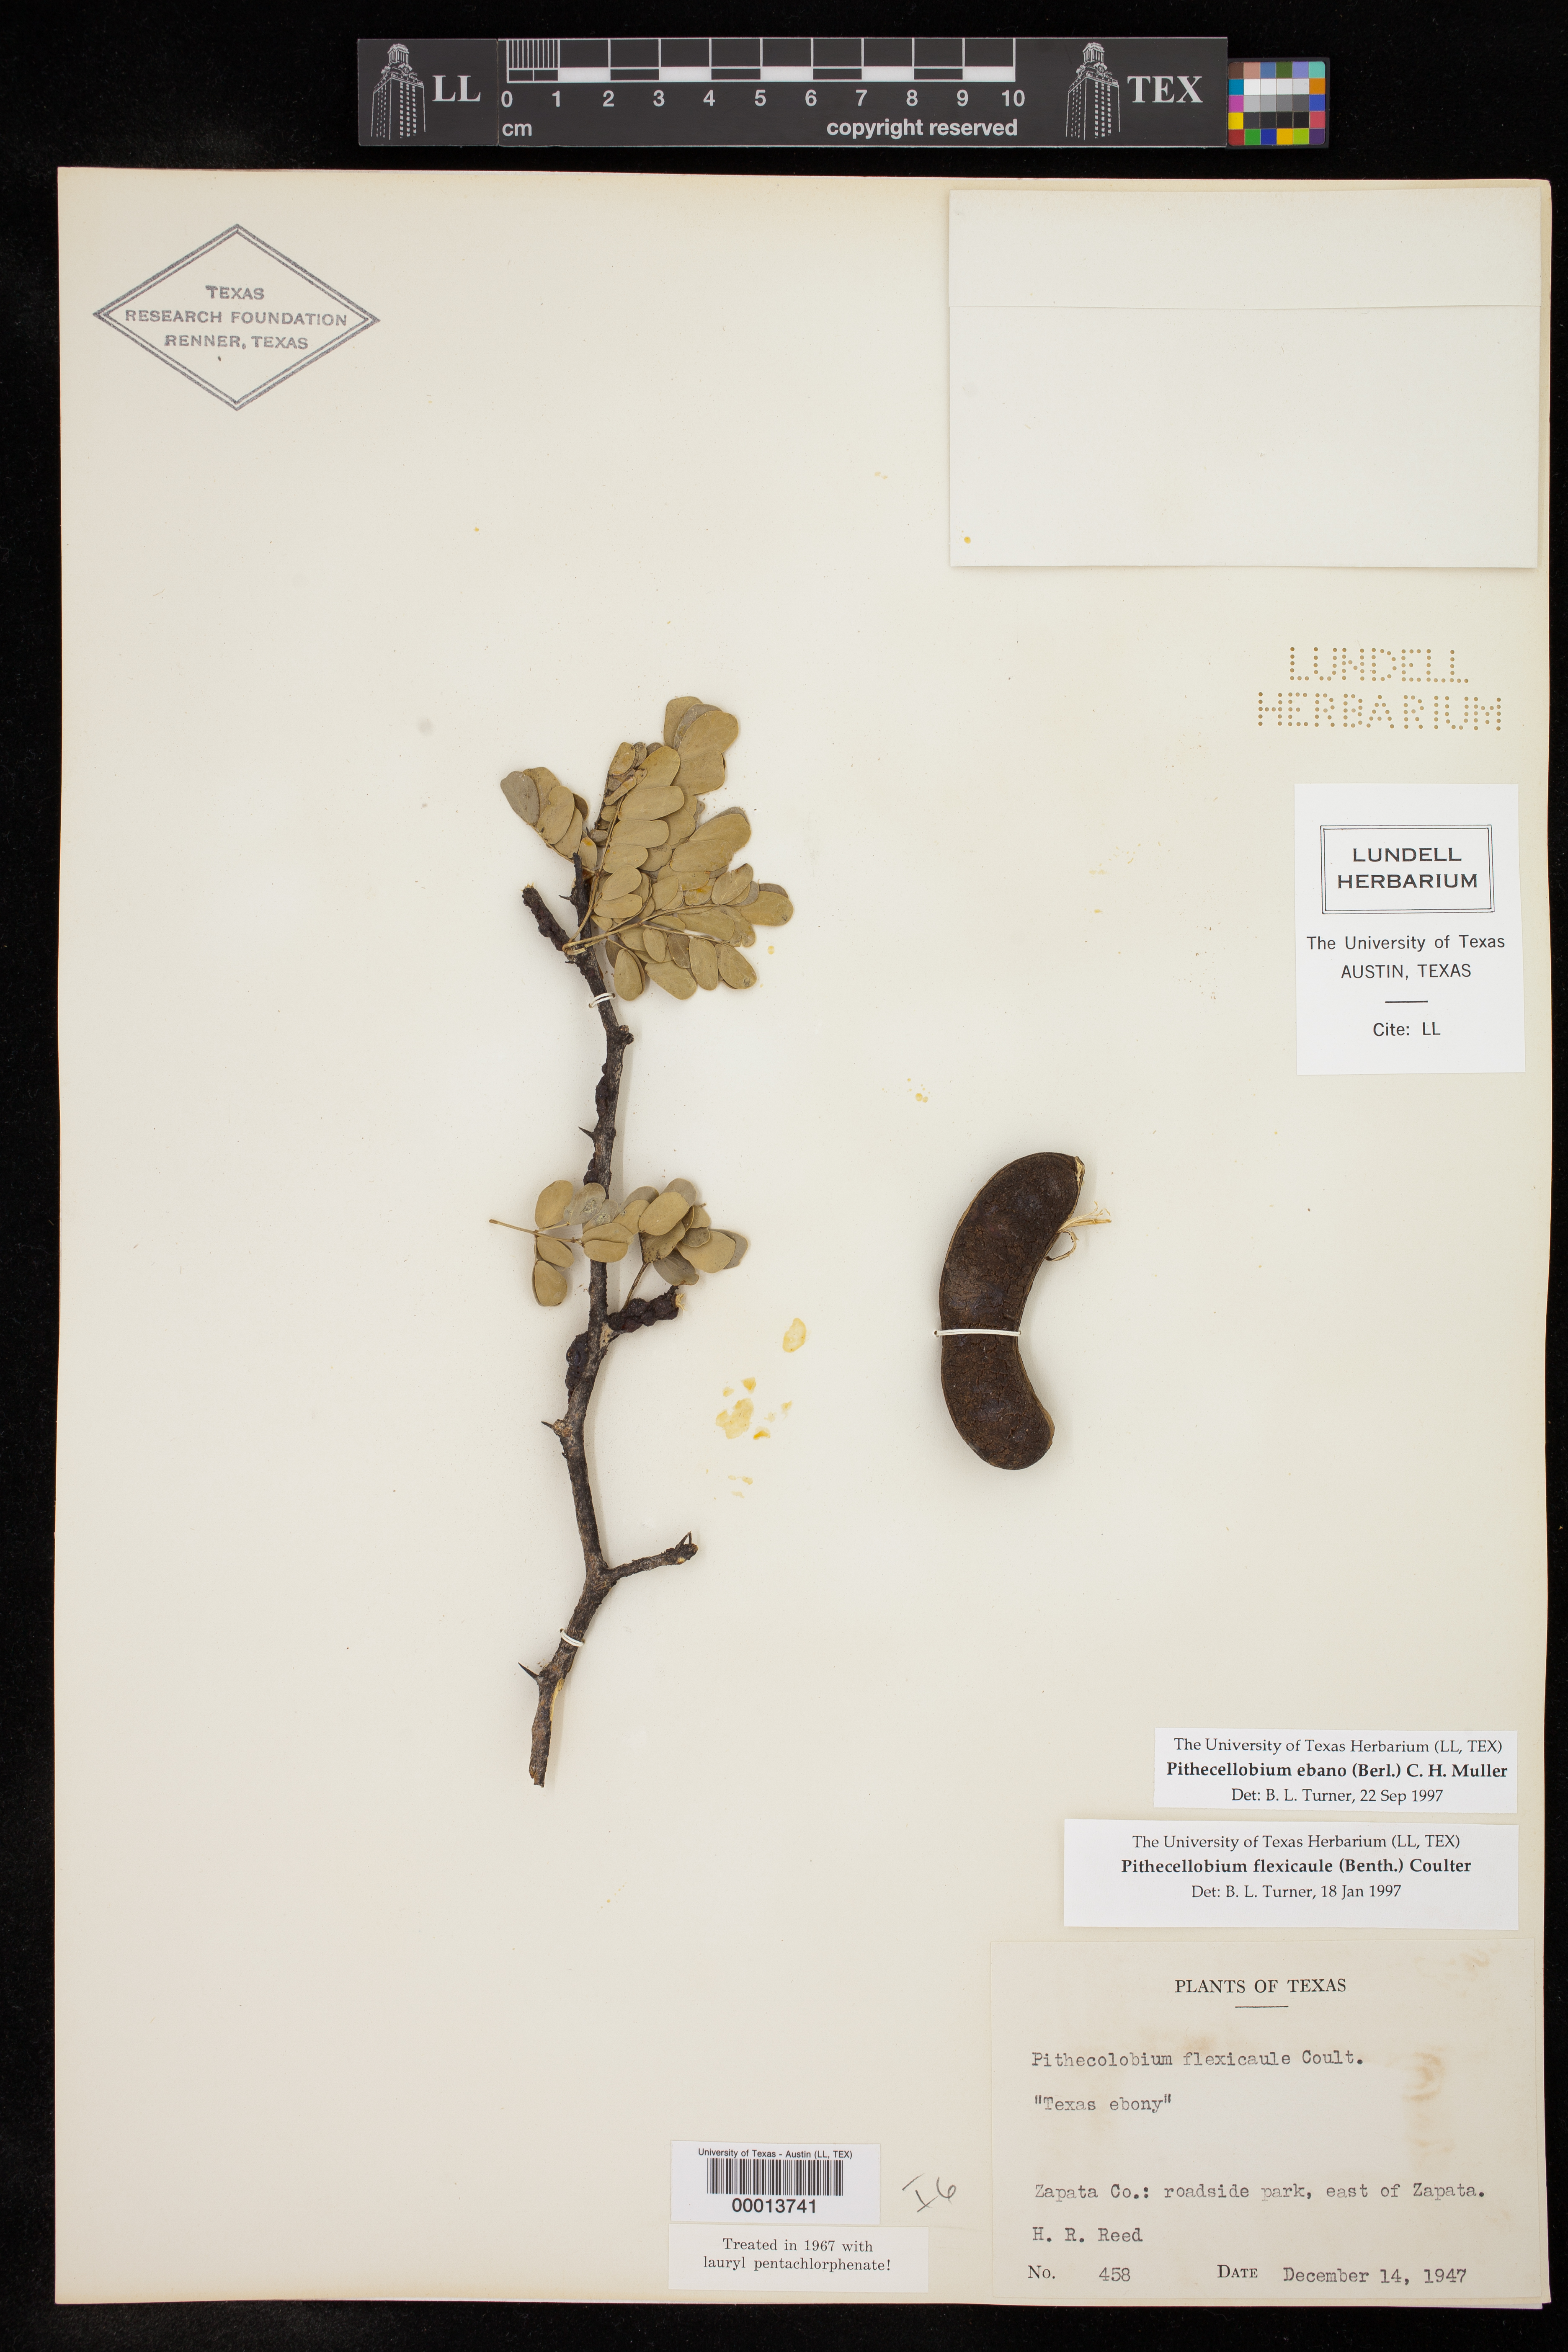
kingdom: Plantae
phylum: Tracheophyta
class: Magnoliopsida
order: Fabales
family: Fabaceae
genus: Ebenopsis
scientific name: Ebenopsis ebano
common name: Ebony blackbead
